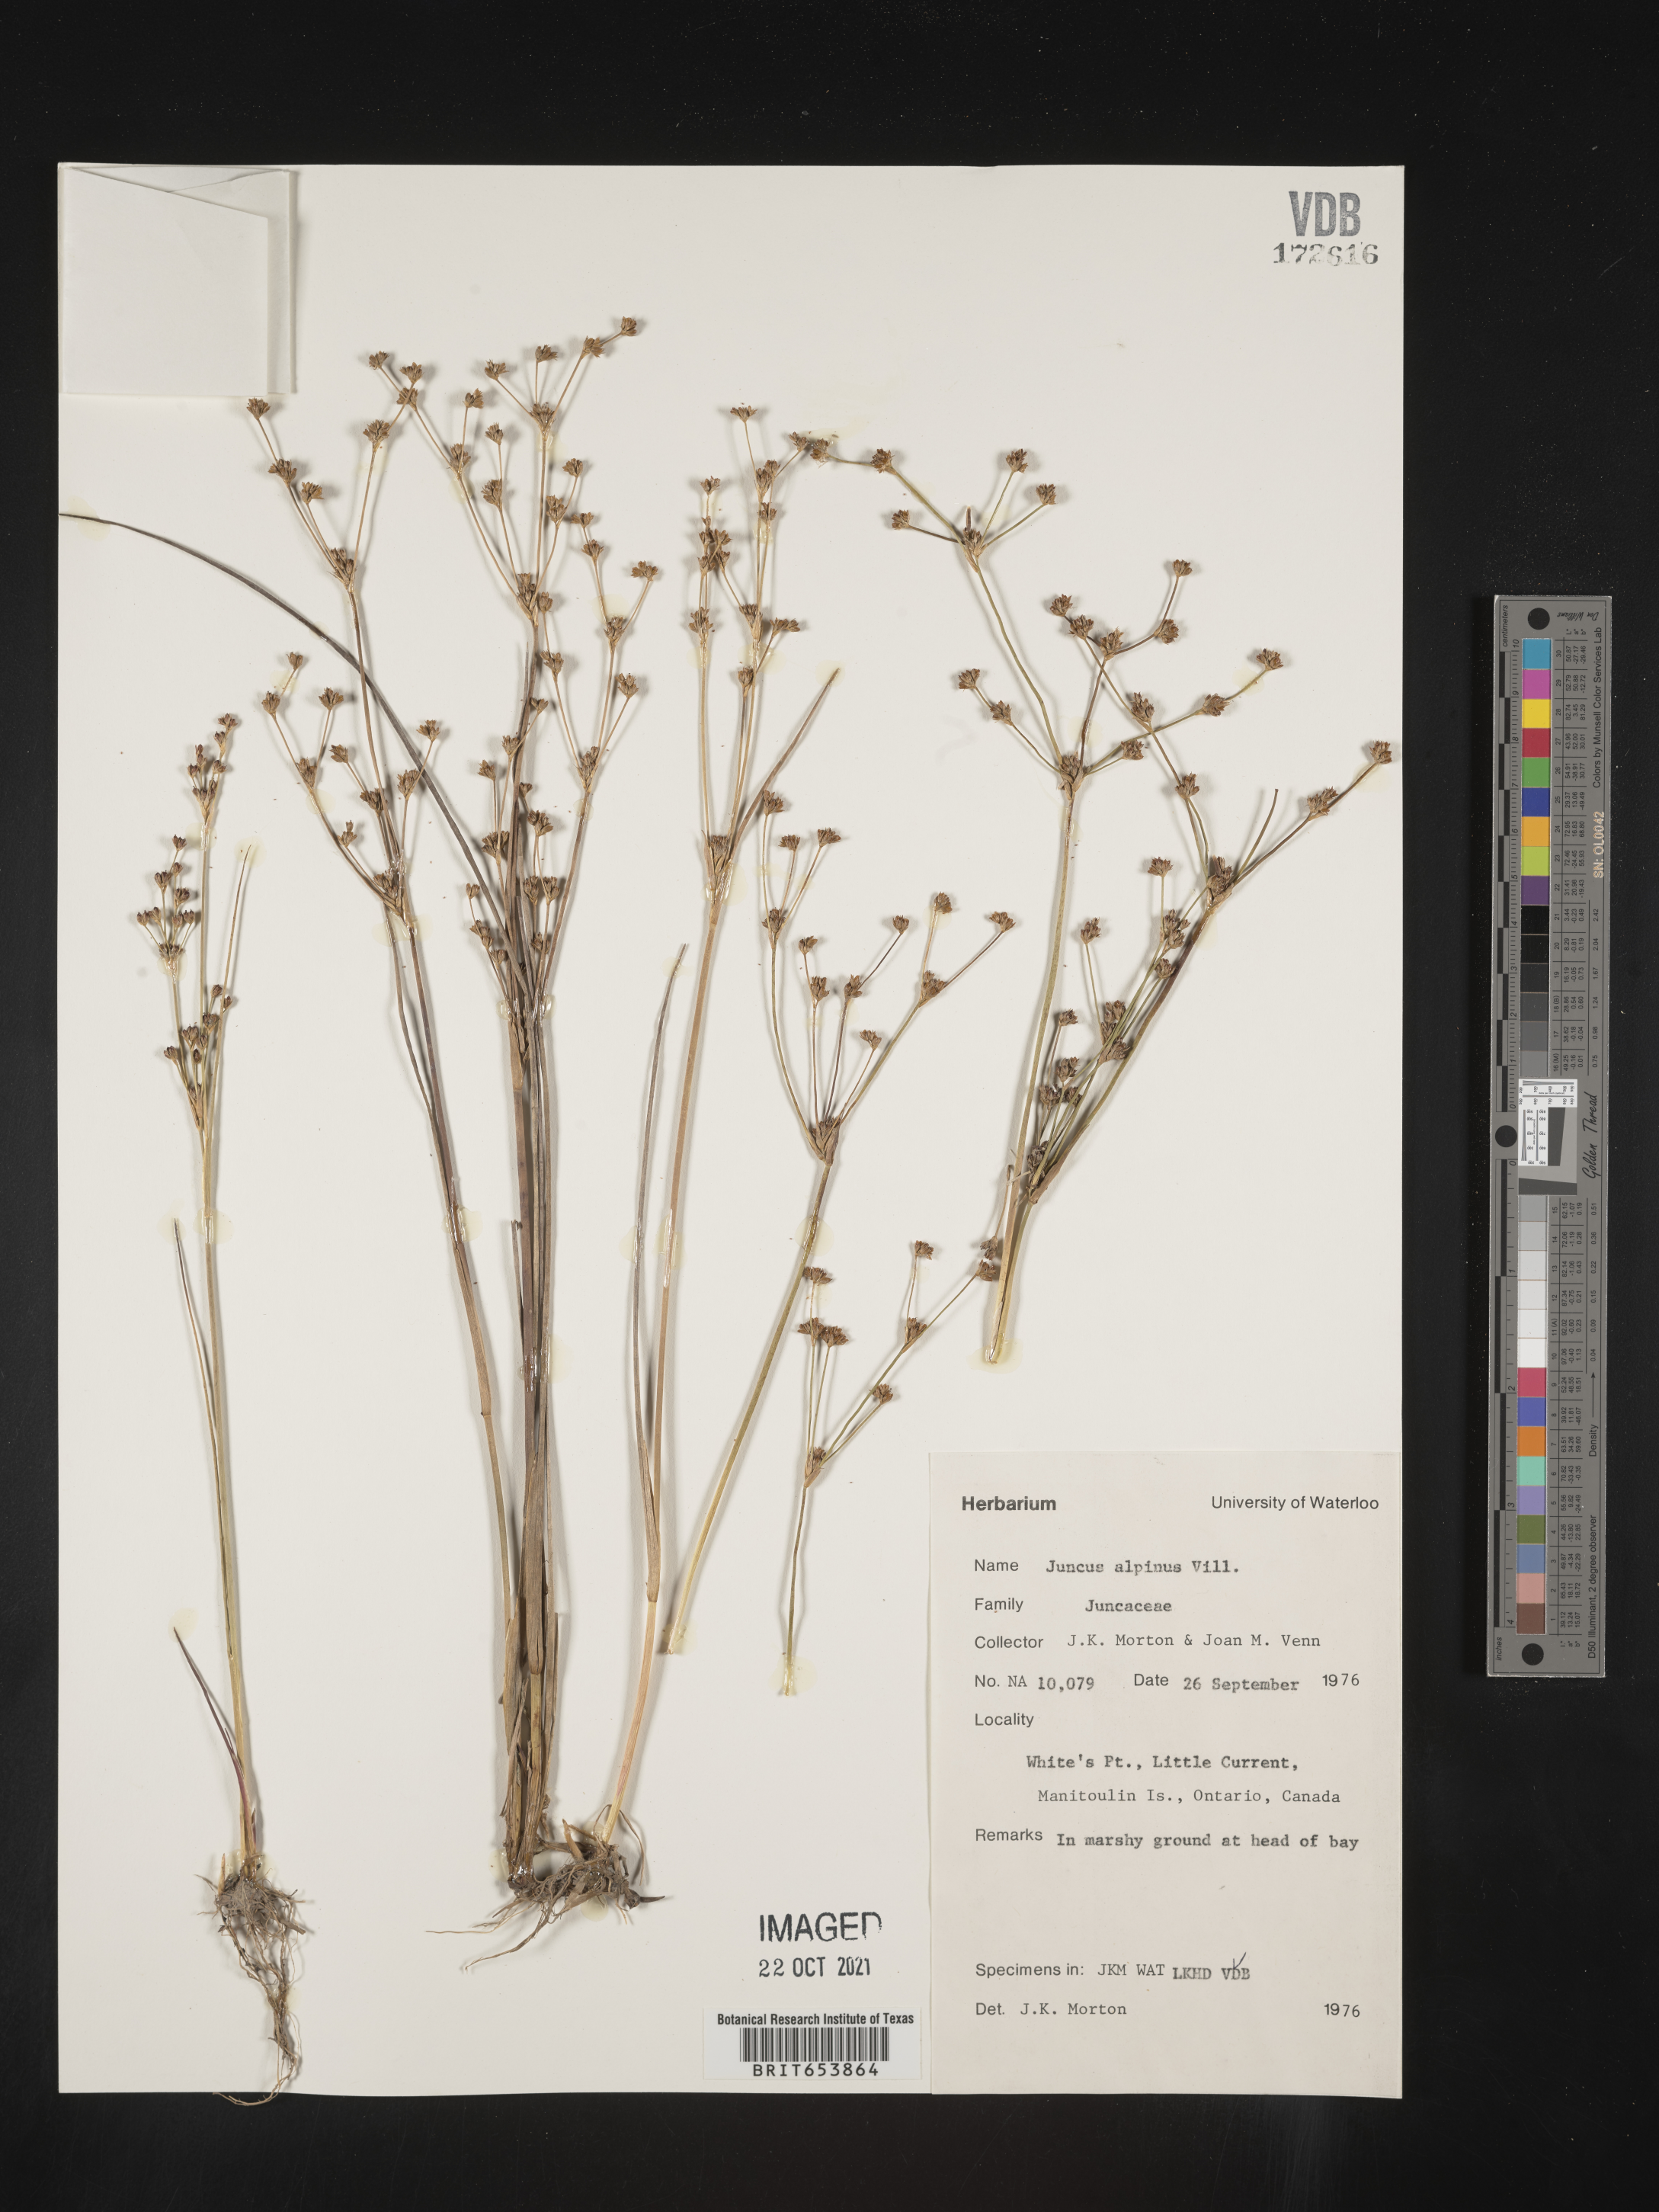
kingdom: Plantae
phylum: Tracheophyta
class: Liliopsida
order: Poales
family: Juncaceae
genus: Juncus
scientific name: Juncus alpinoarticulatus
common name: Alpine rush
